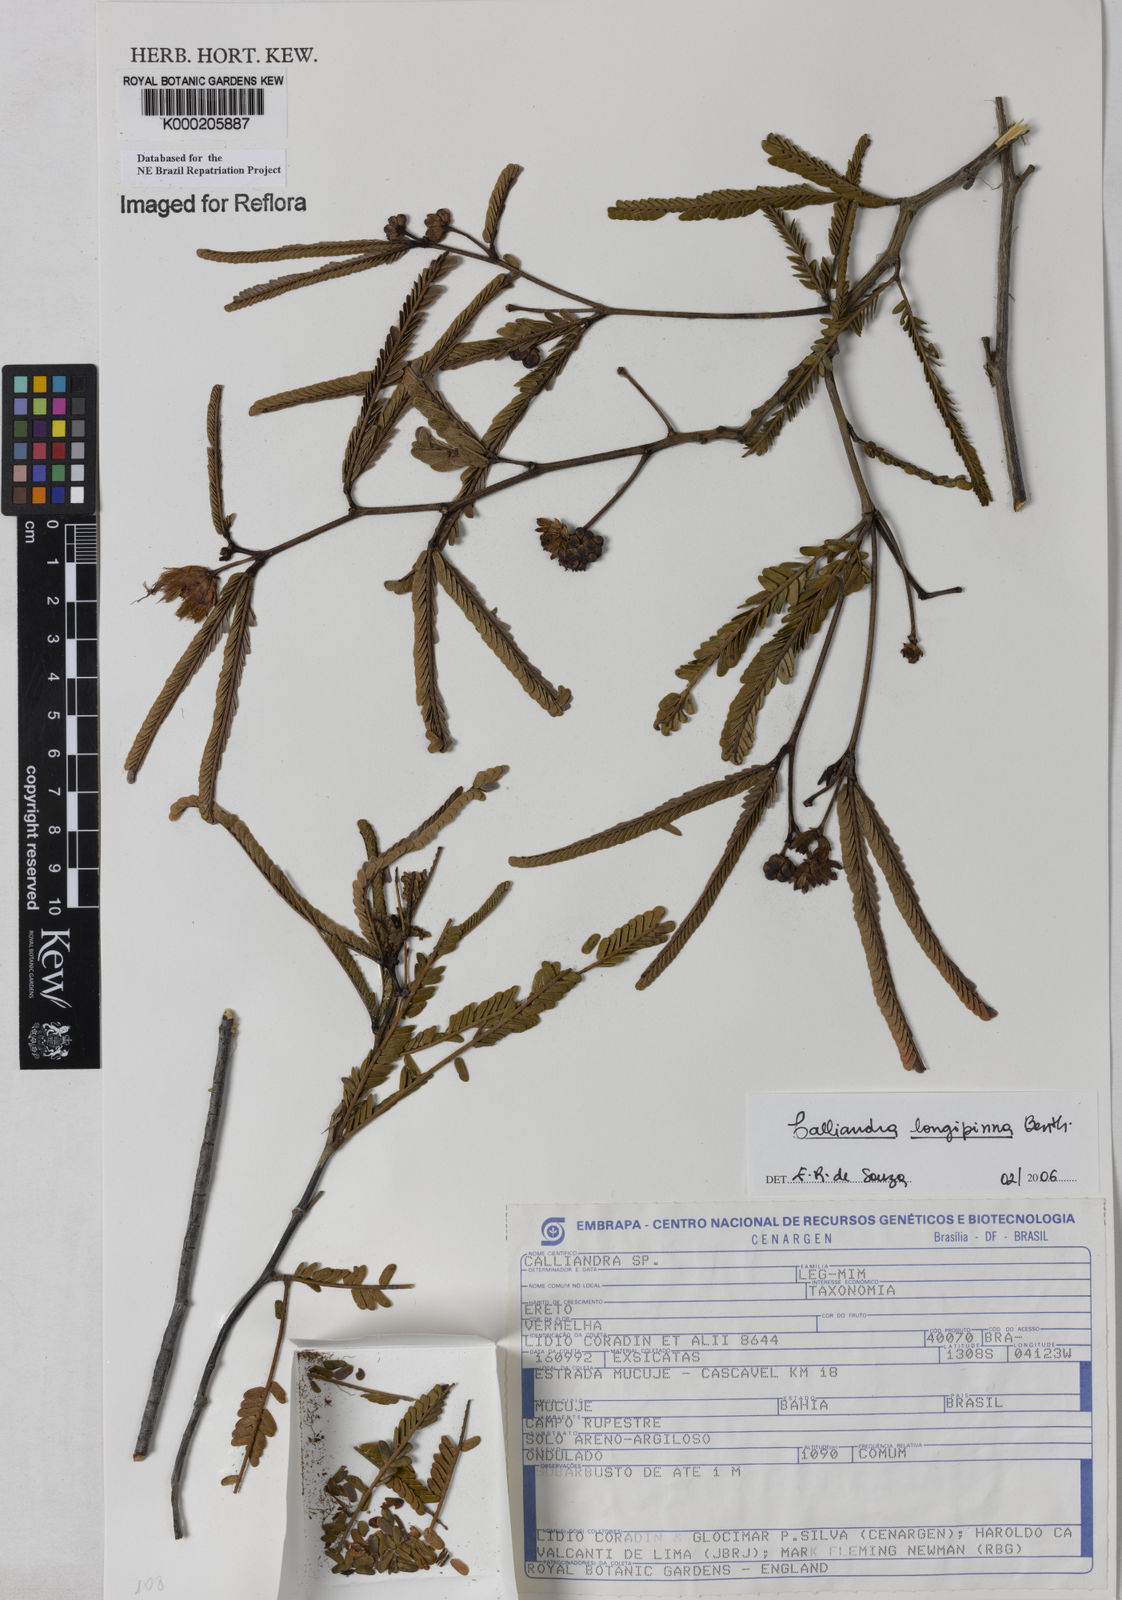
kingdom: Plantae
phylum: Tracheophyta
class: Magnoliopsida
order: Fabales
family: Fabaceae
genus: Calliandra
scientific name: Calliandra
